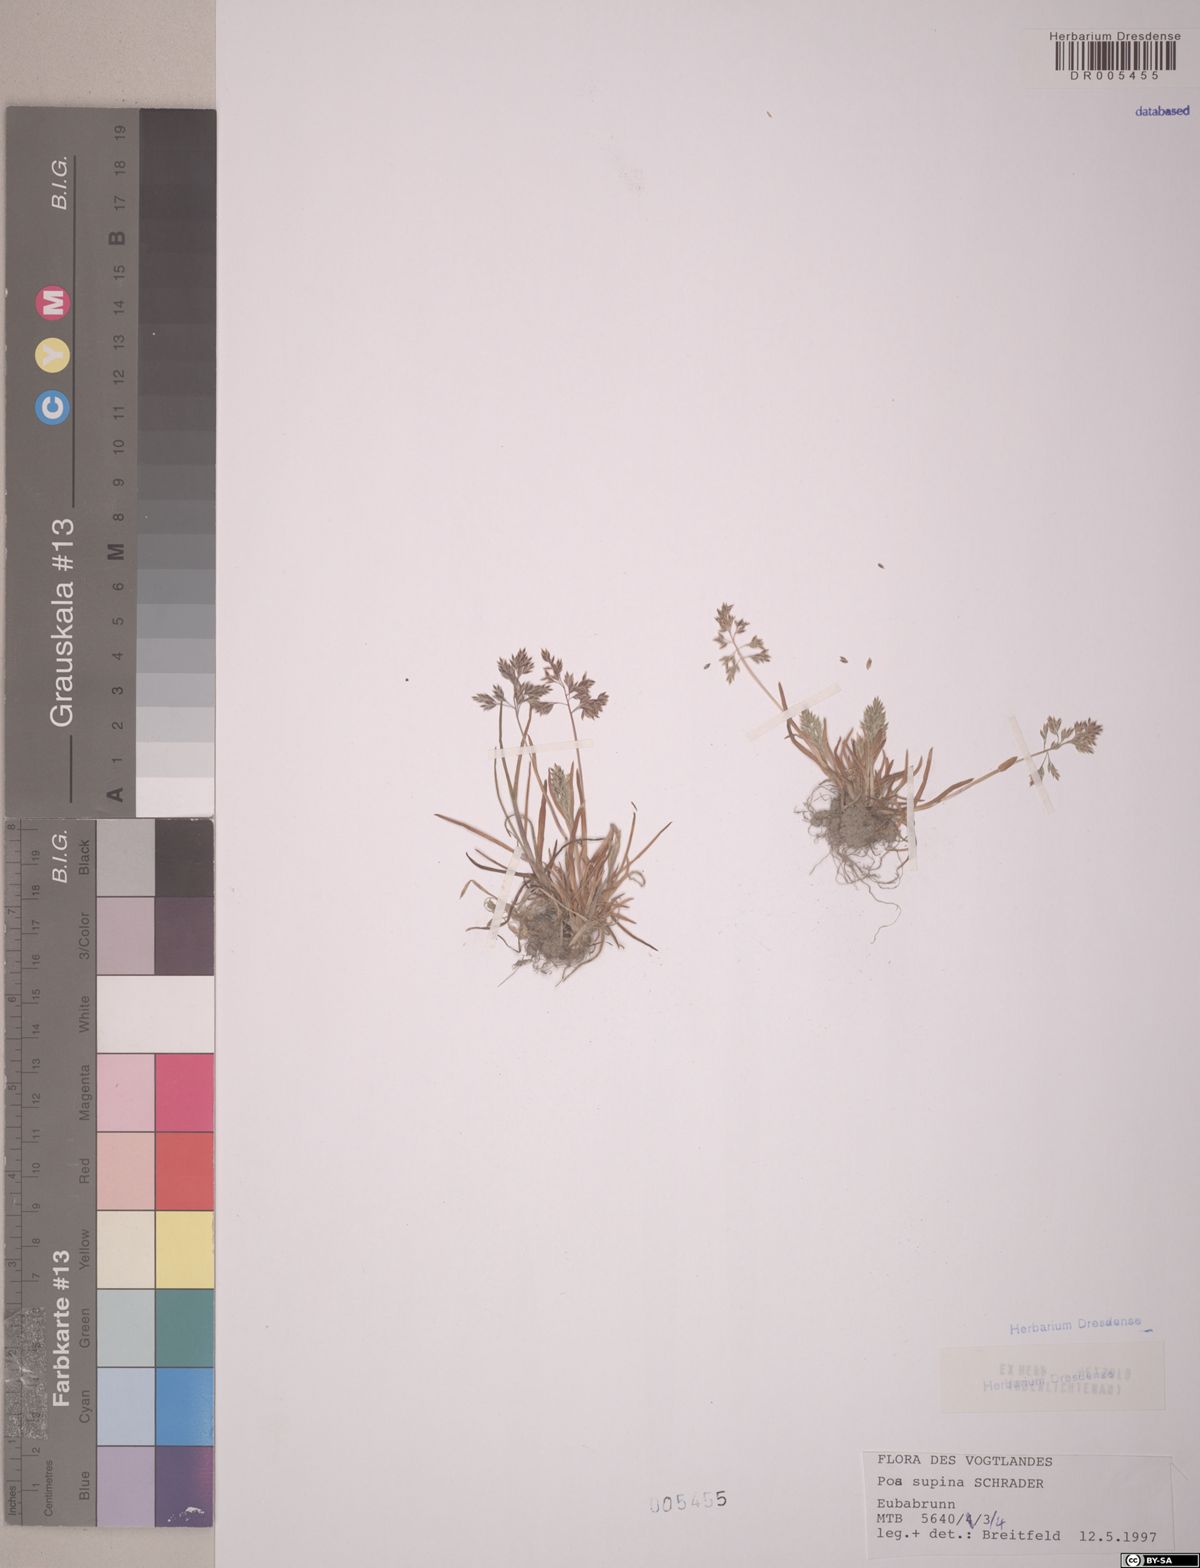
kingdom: Plantae
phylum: Tracheophyta
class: Liliopsida
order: Poales
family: Poaceae
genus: Poa
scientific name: Poa supina
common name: Supina bluegrass
